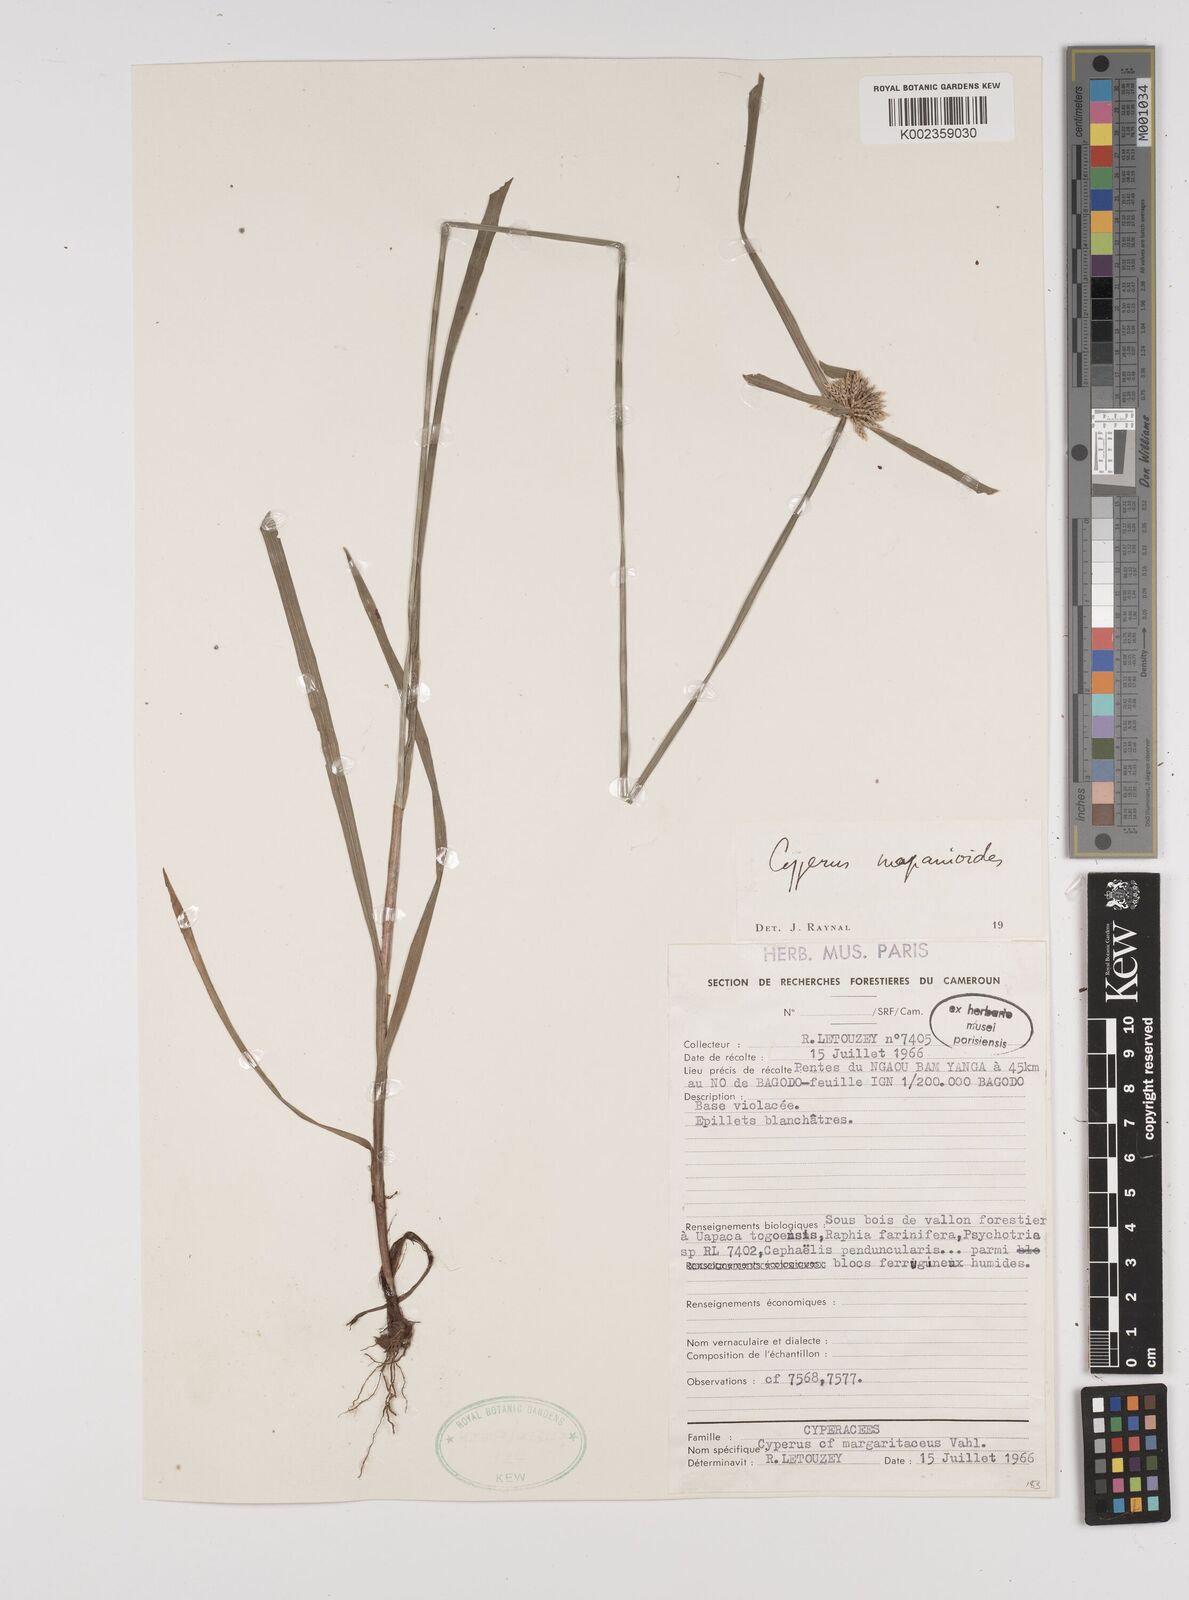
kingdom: Plantae
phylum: Tracheophyta
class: Liliopsida
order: Poales
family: Cyperaceae
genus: Cyperus
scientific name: Cyperus mapanioides
